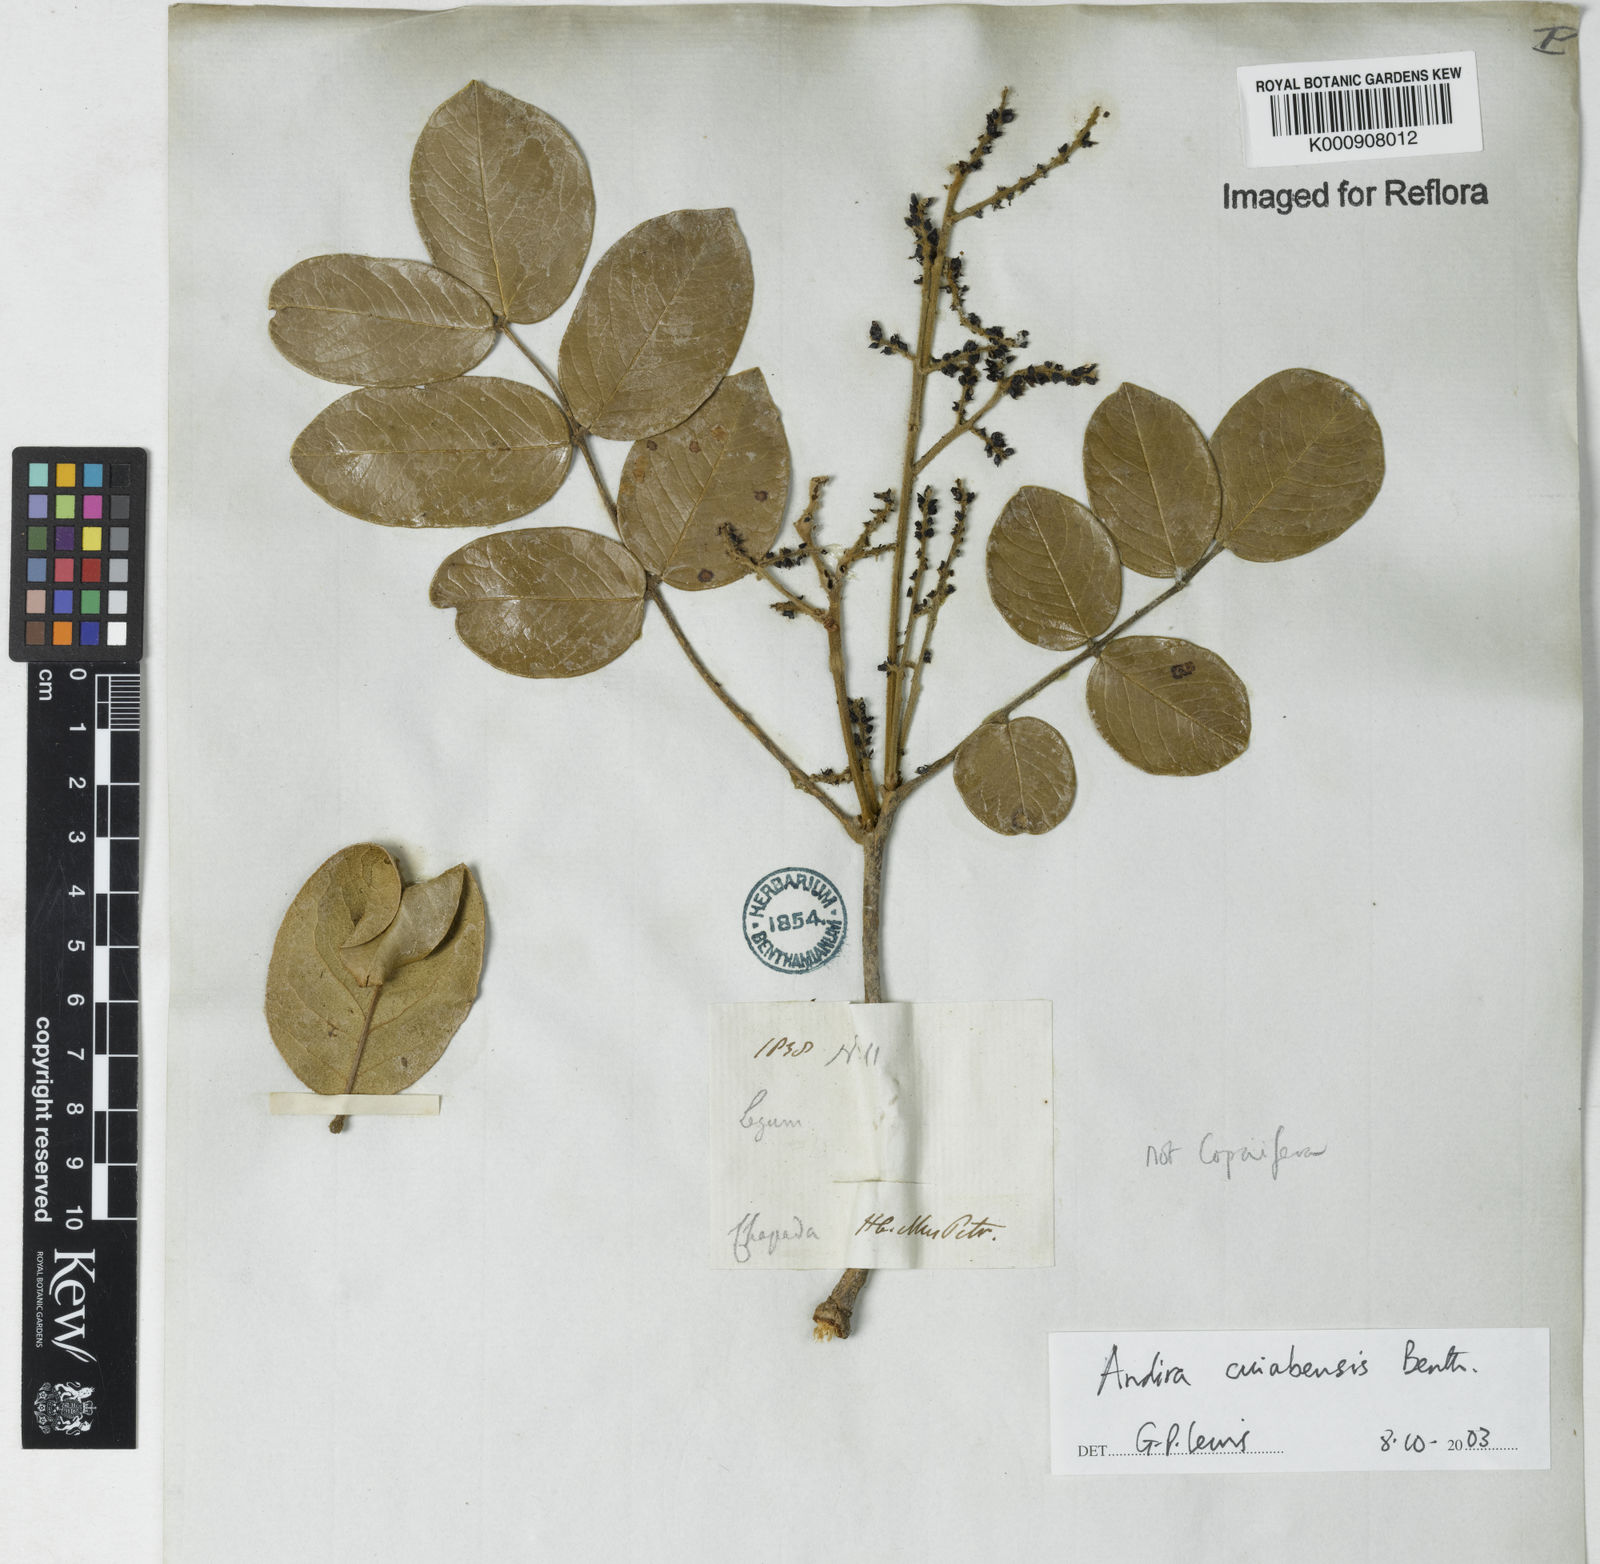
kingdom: Plantae
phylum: Tracheophyta
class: Magnoliopsida
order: Fabales
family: Fabaceae
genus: Andira
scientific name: Andira cujabensis
